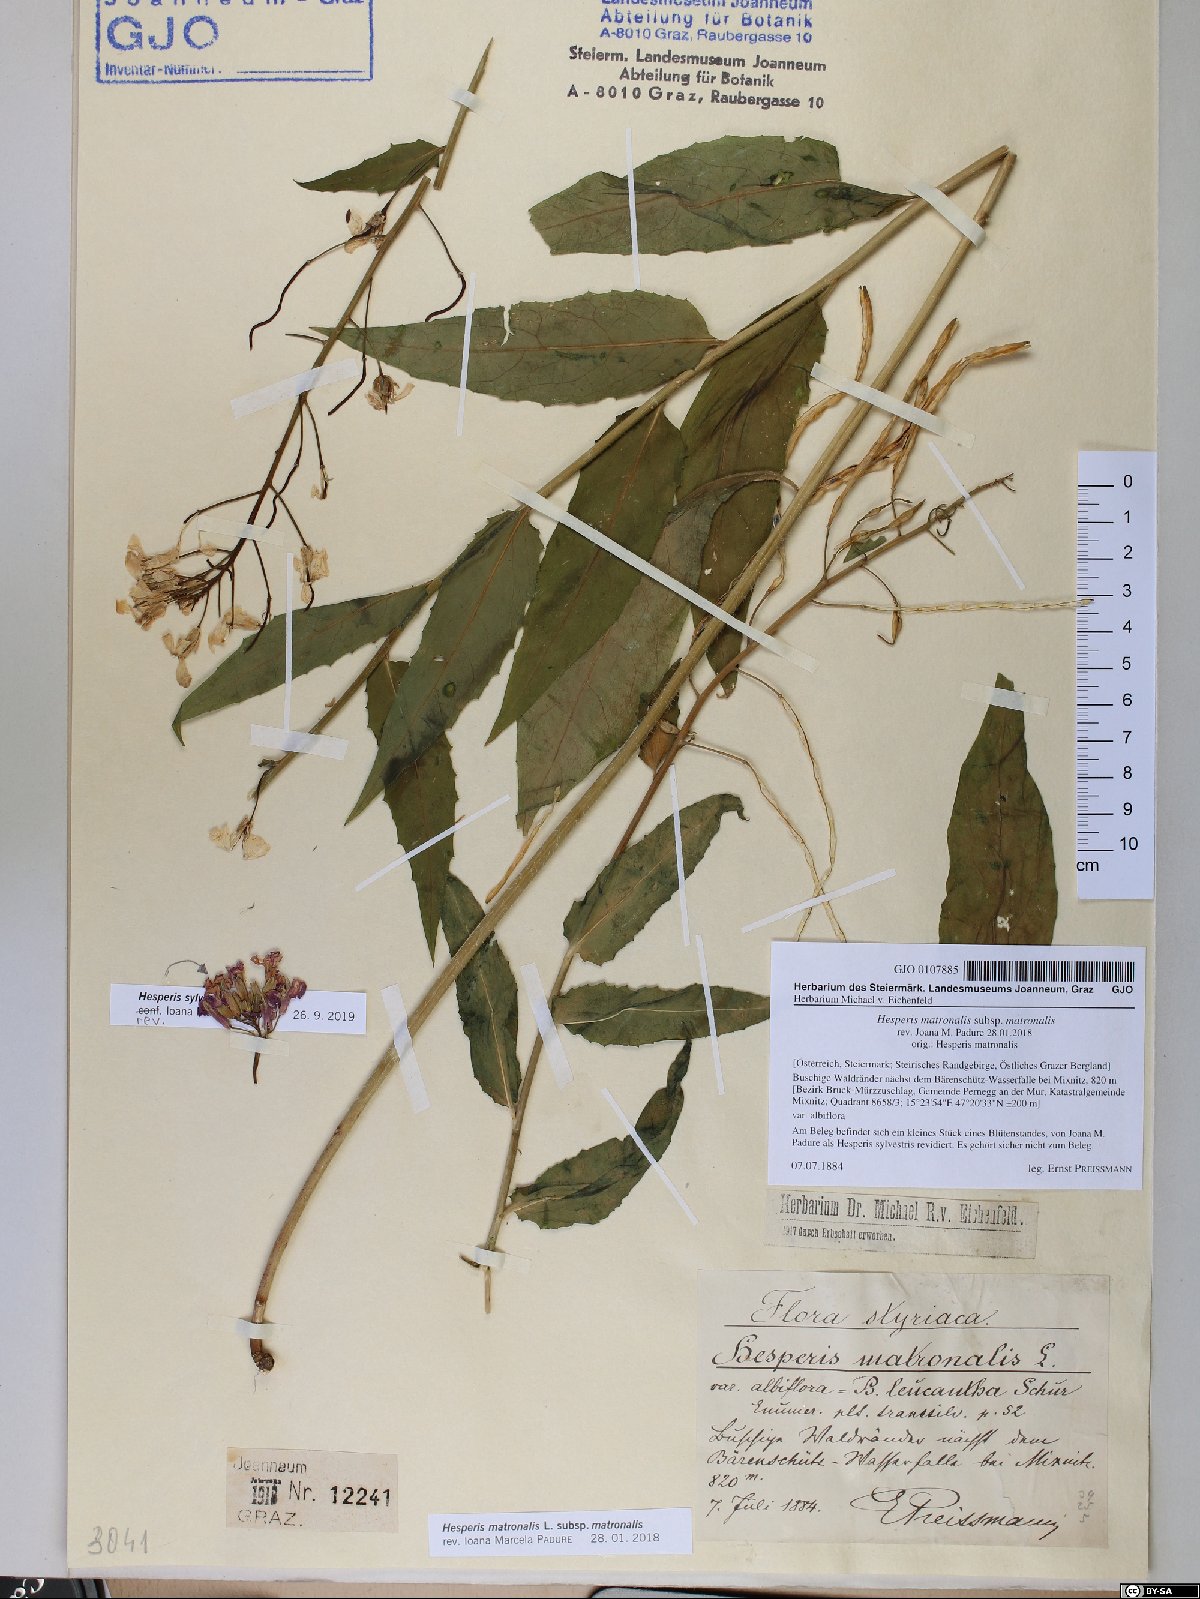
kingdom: Plantae
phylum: Tracheophyta
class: Magnoliopsida
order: Brassicales
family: Brassicaceae
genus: Hesperis
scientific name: Hesperis matronalis
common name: Dame's-violet
